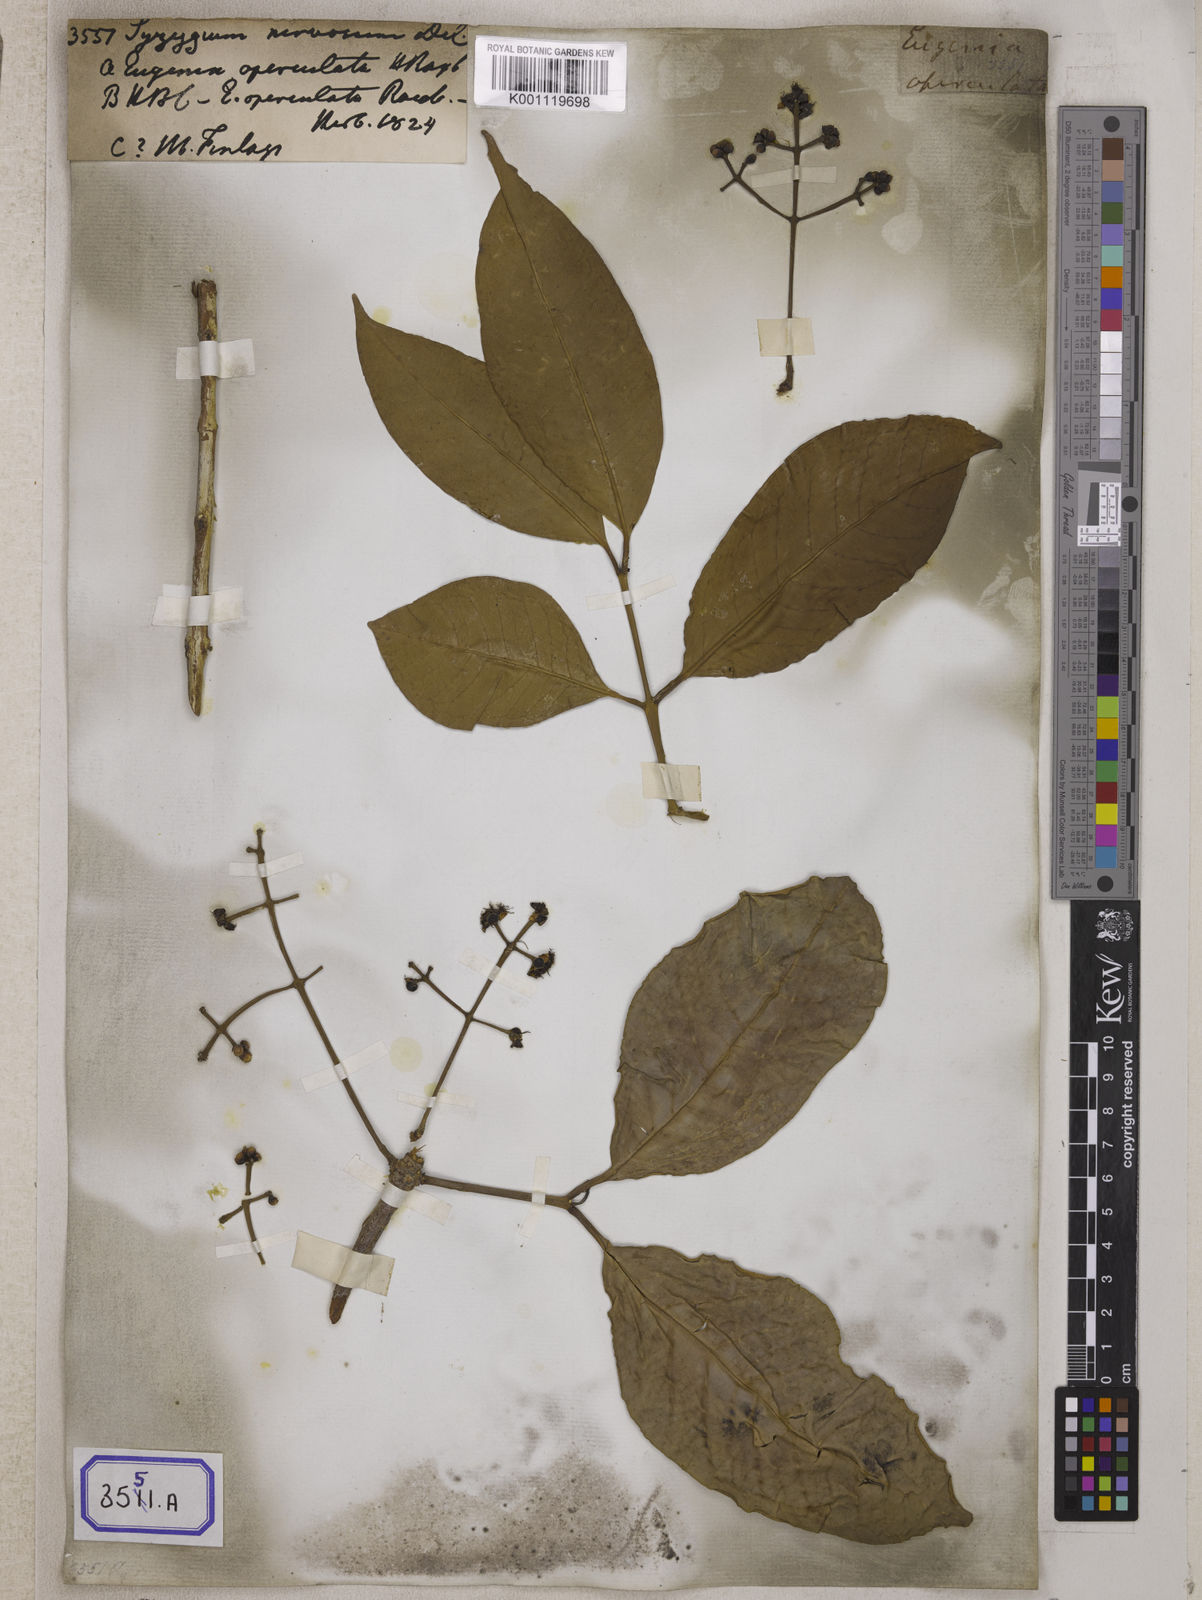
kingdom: Plantae
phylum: Tracheophyta
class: Magnoliopsida
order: Myrtales
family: Myrtaceae
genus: Syzygium
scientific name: Syzygium nervosum
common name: Daly river satinash
